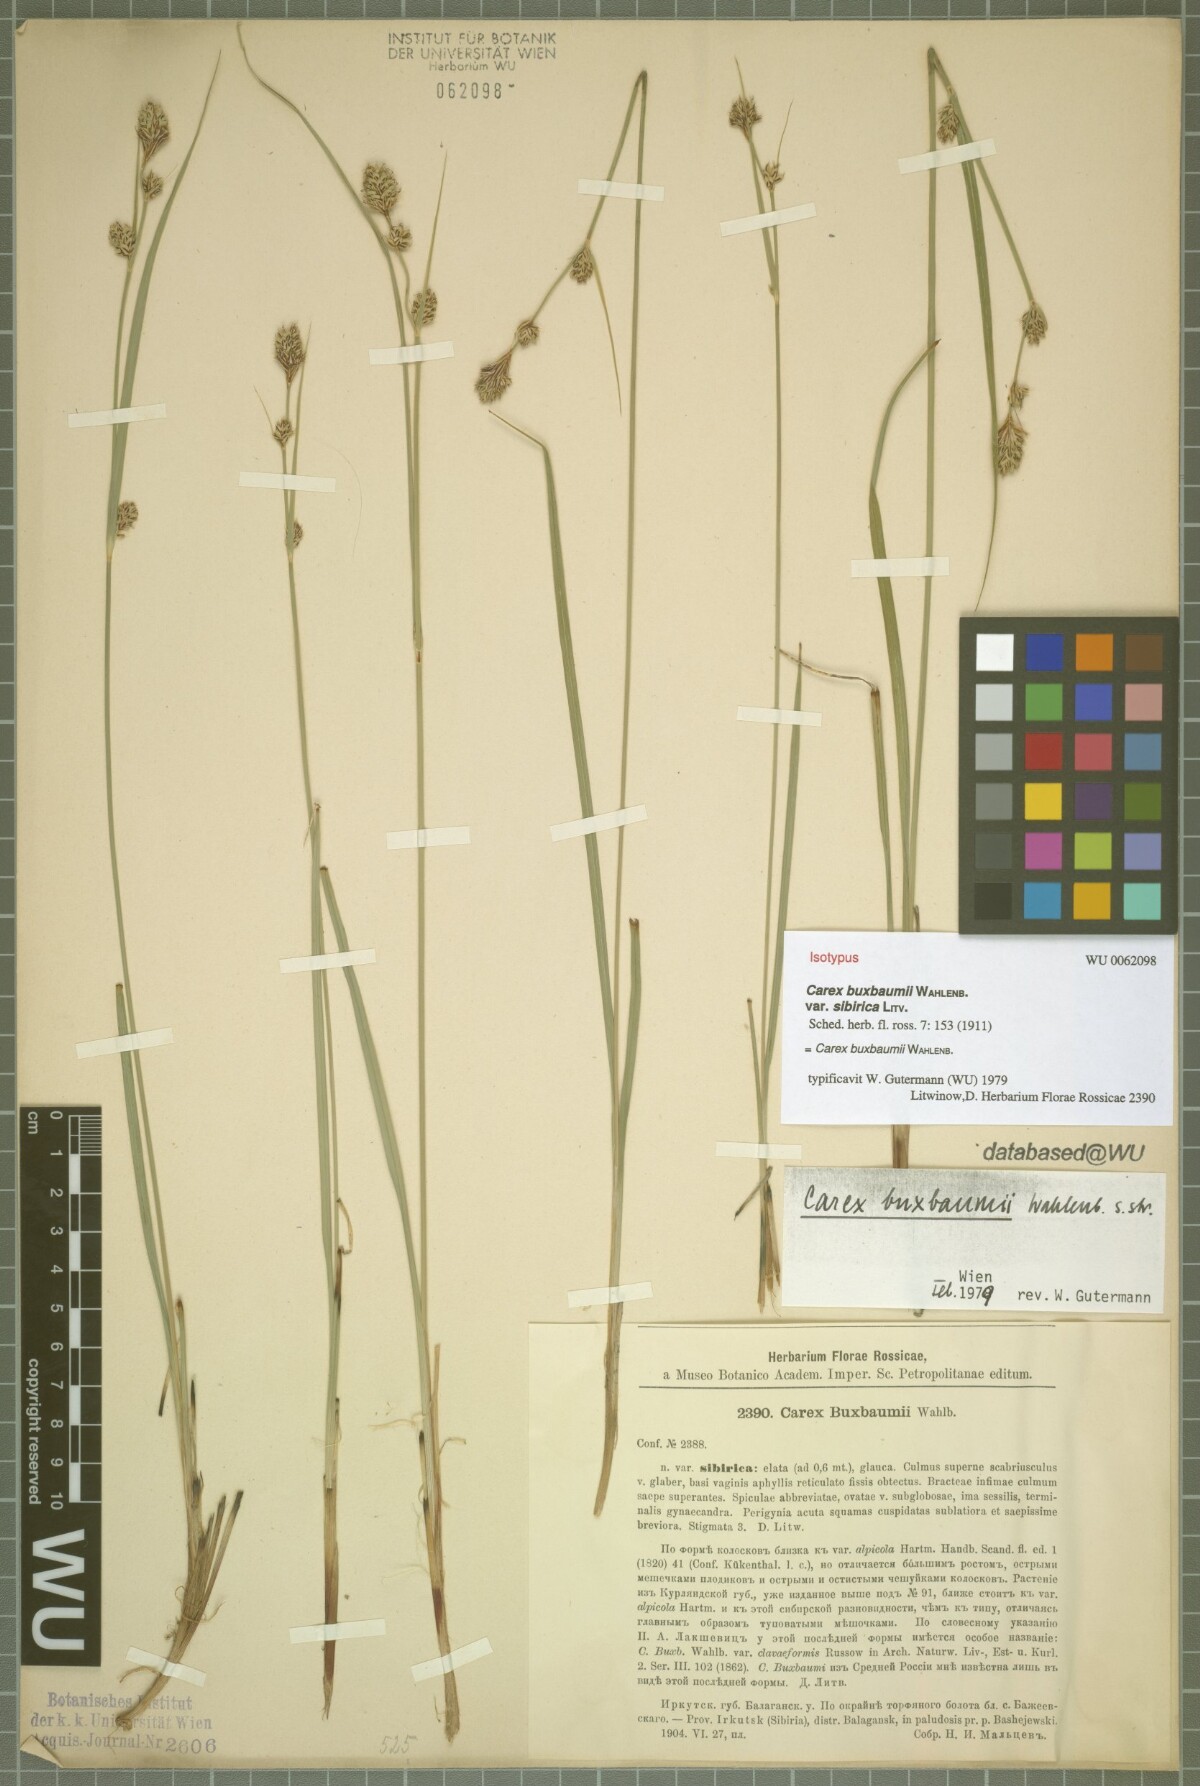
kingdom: Plantae
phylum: Tracheophyta
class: Liliopsida
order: Poales
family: Cyperaceae
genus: Carex
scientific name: Carex buxbaumii
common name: Club sedge
